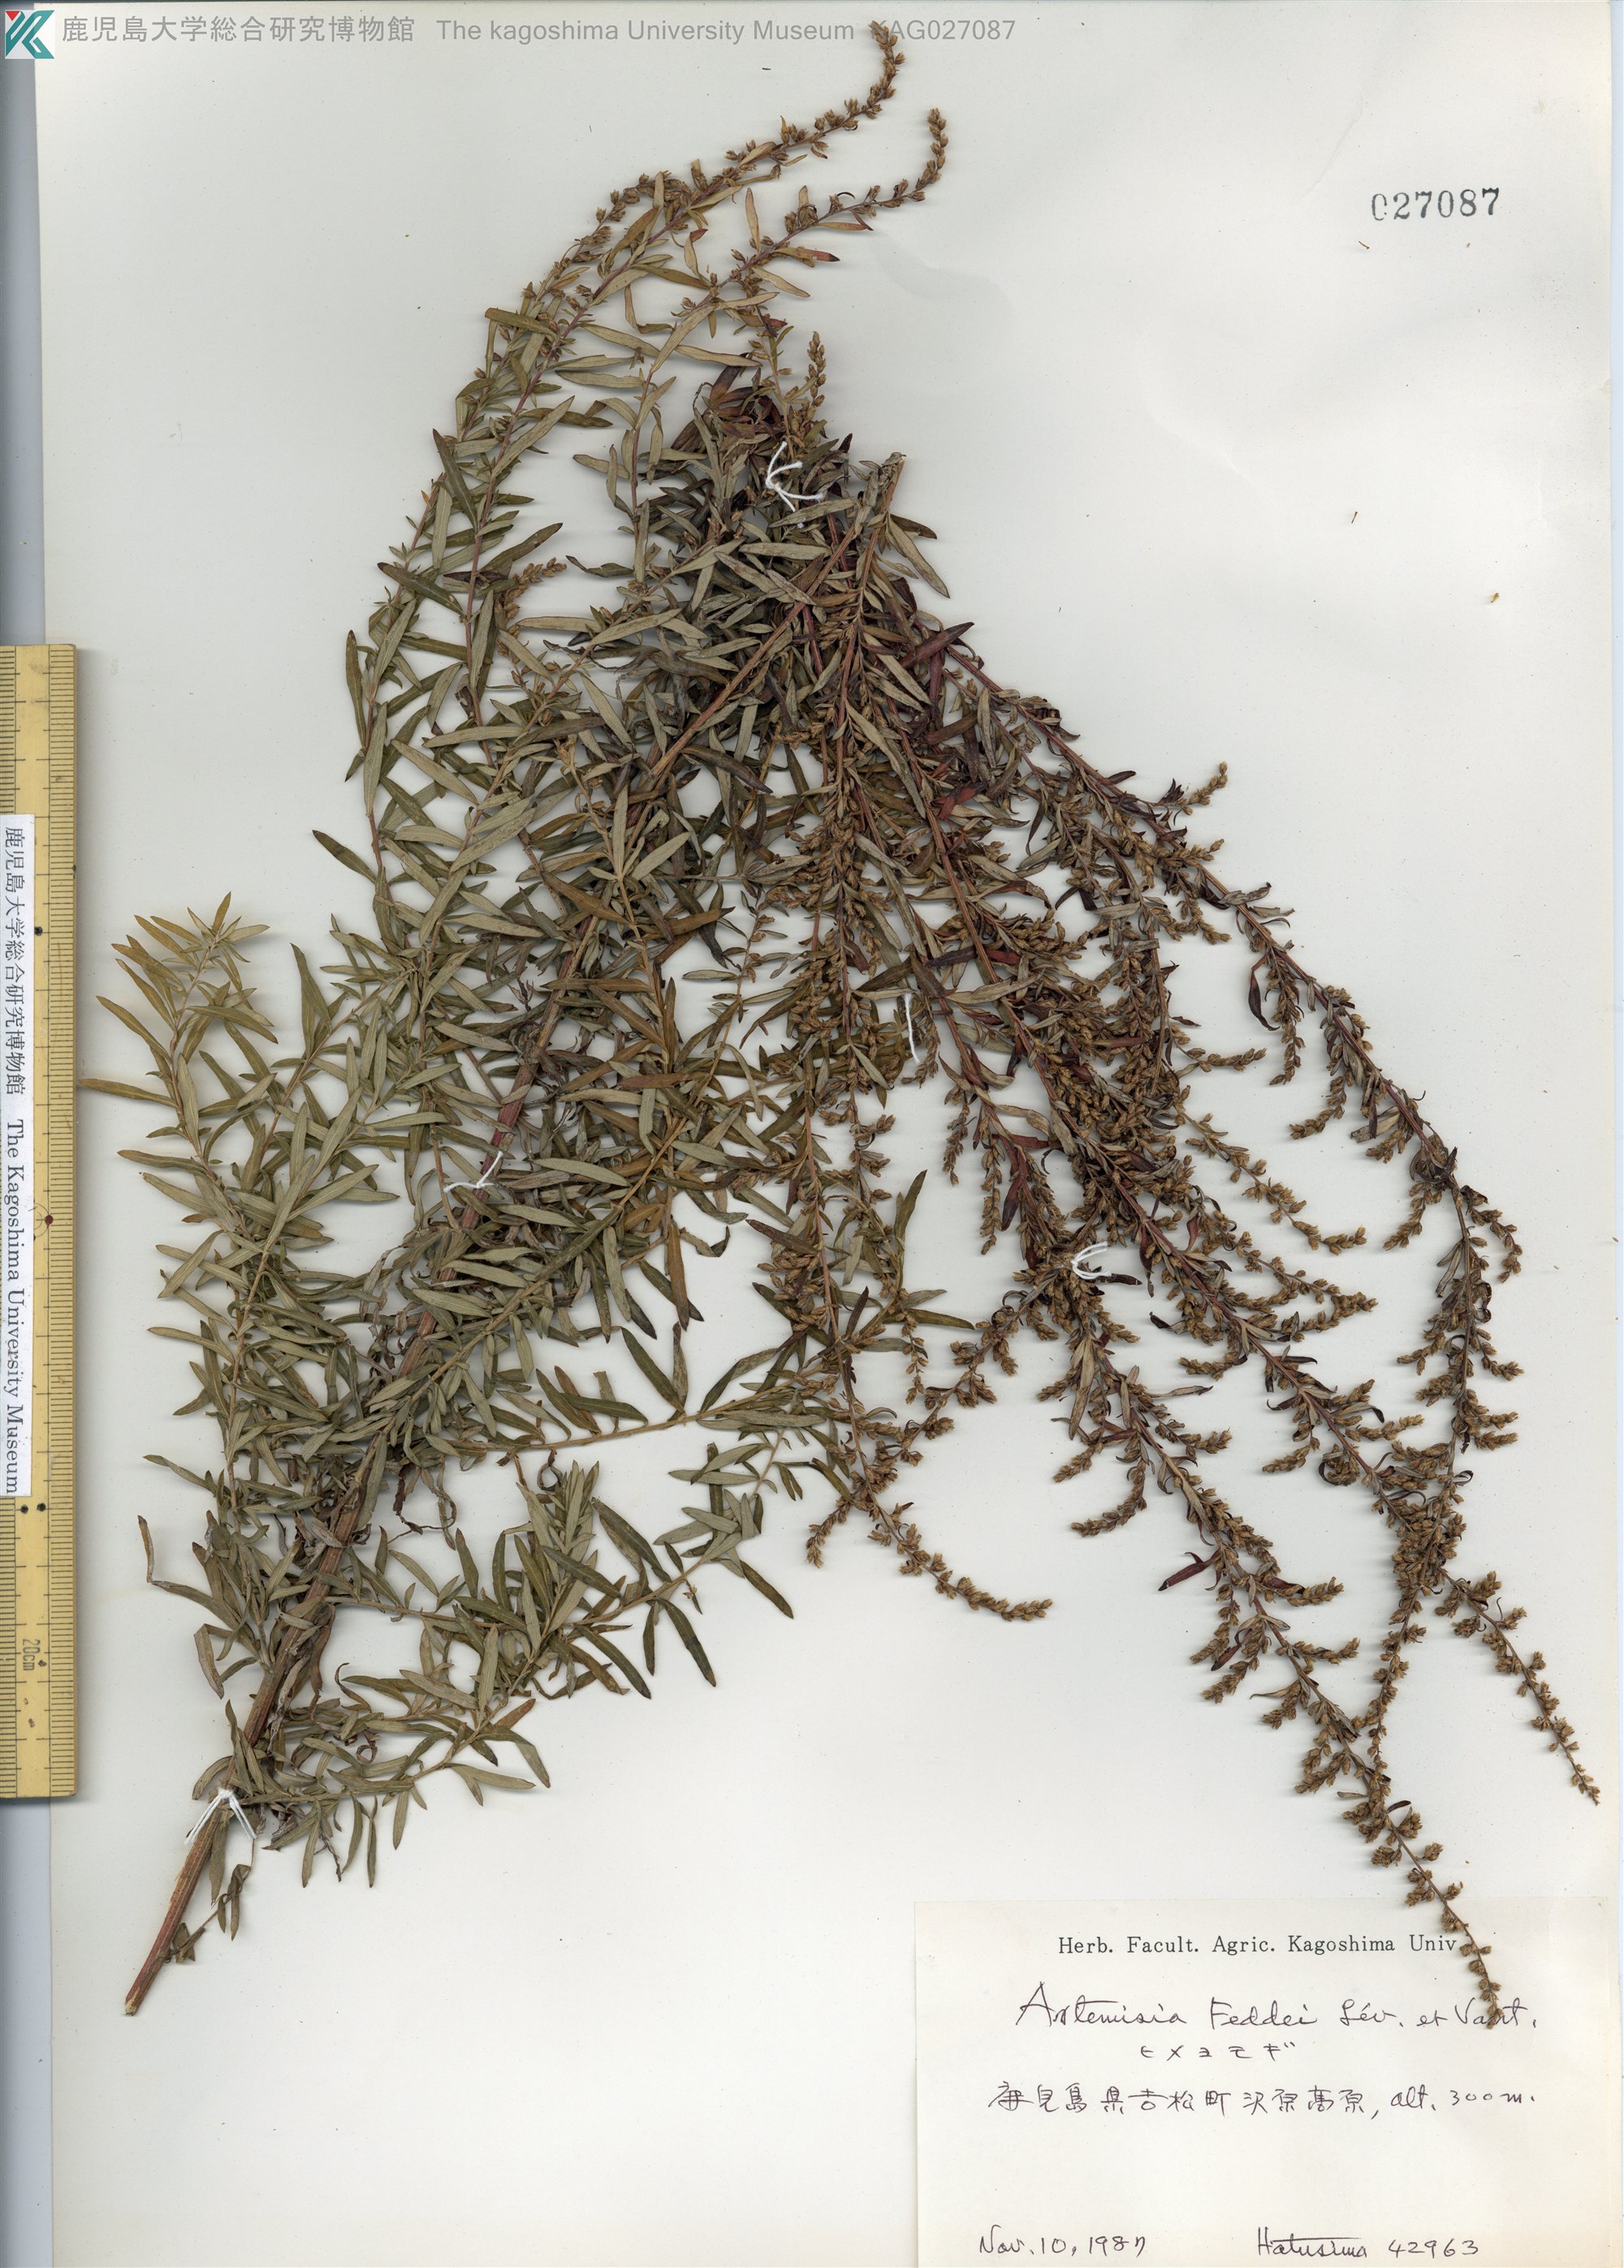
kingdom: Plantae
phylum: Tracheophyta
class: Magnoliopsida
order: Asterales
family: Asteraceae
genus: Artemisia
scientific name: Artemisia lancea
